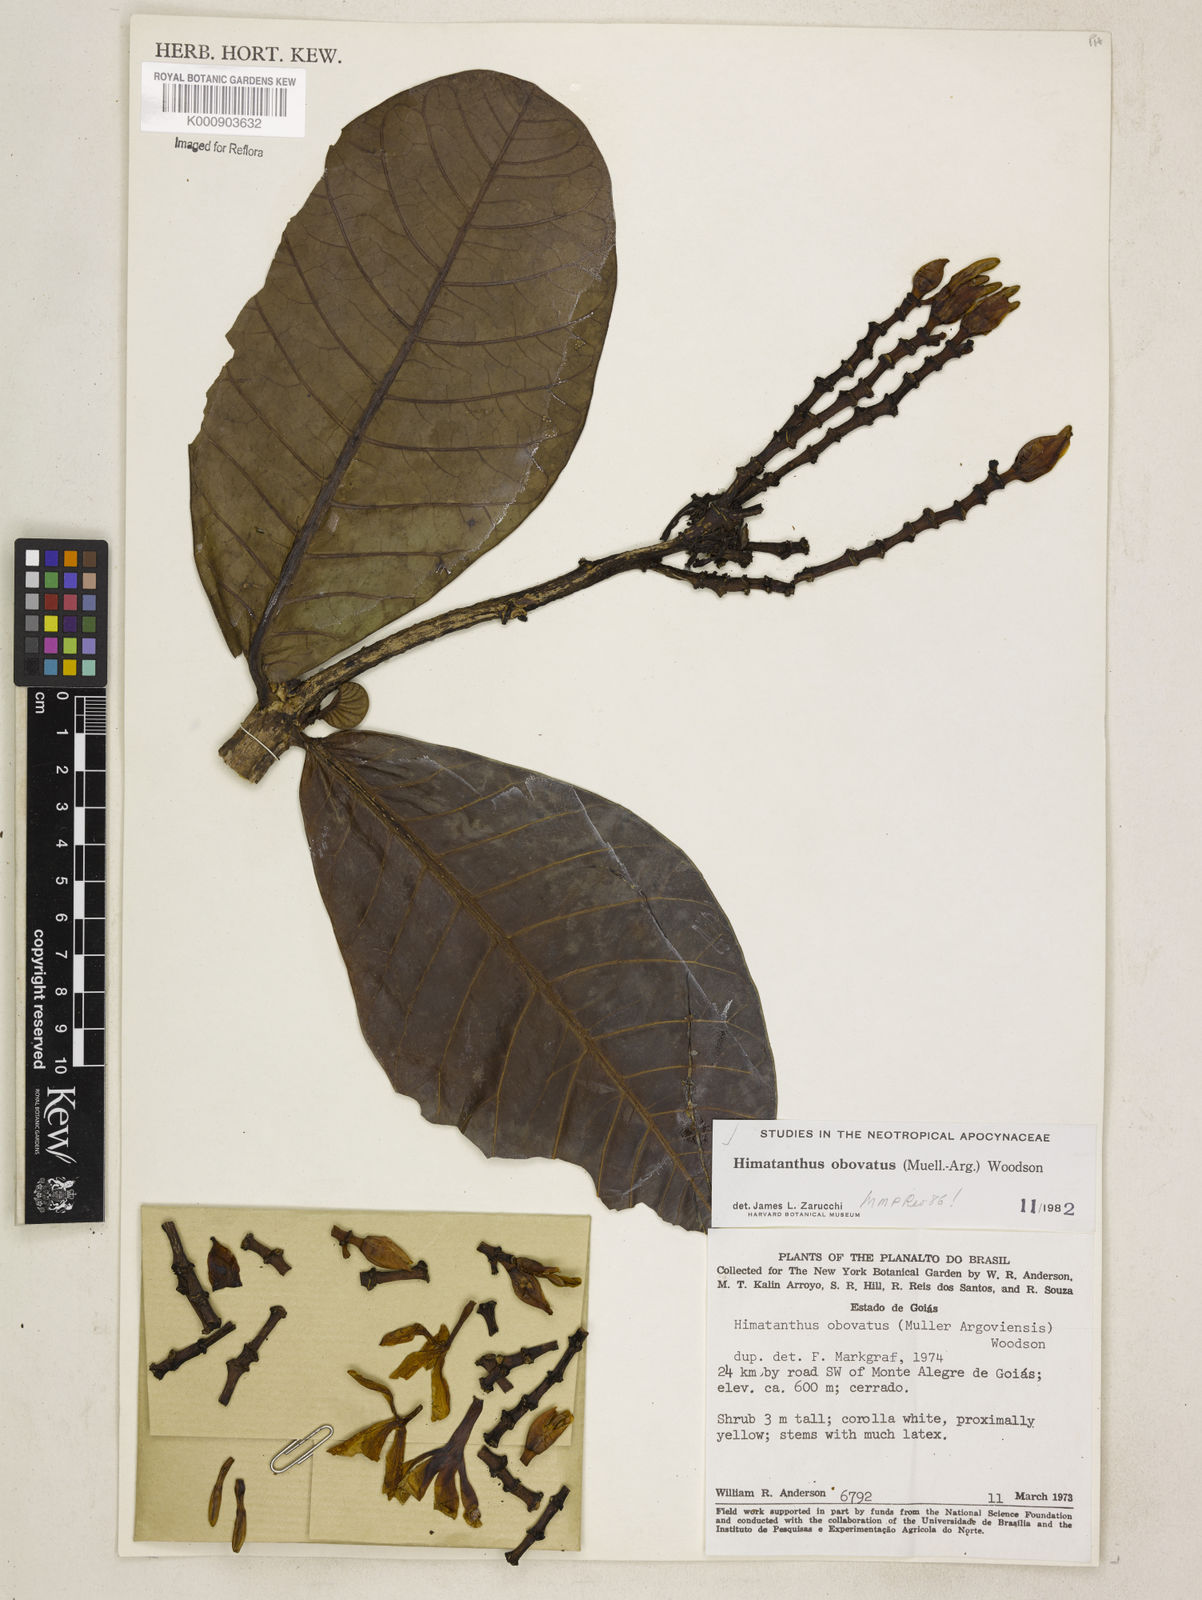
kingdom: Plantae
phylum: Tracheophyta
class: Magnoliopsida
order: Gentianales
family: Apocynaceae
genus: Himatanthus
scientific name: Himatanthus
